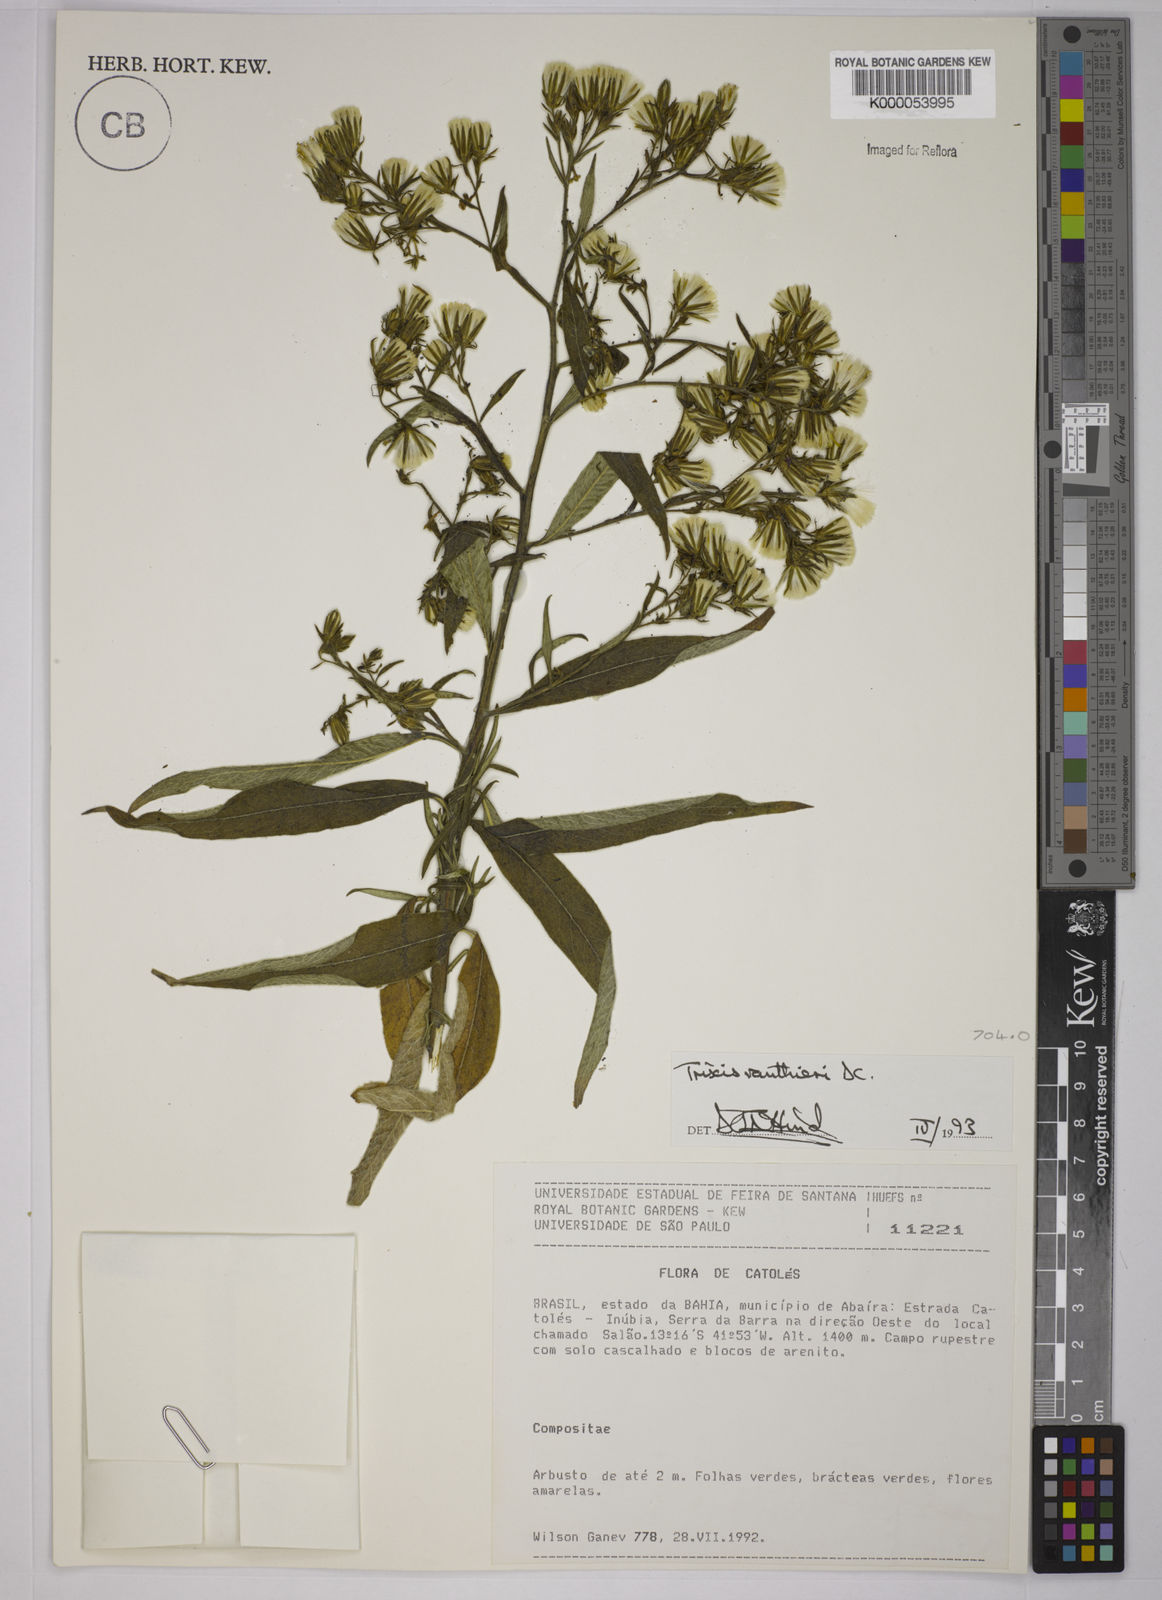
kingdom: Plantae
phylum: Tracheophyta
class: Magnoliopsida
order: Asterales
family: Asteraceae
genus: Trixis
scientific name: Trixis vauthieri
